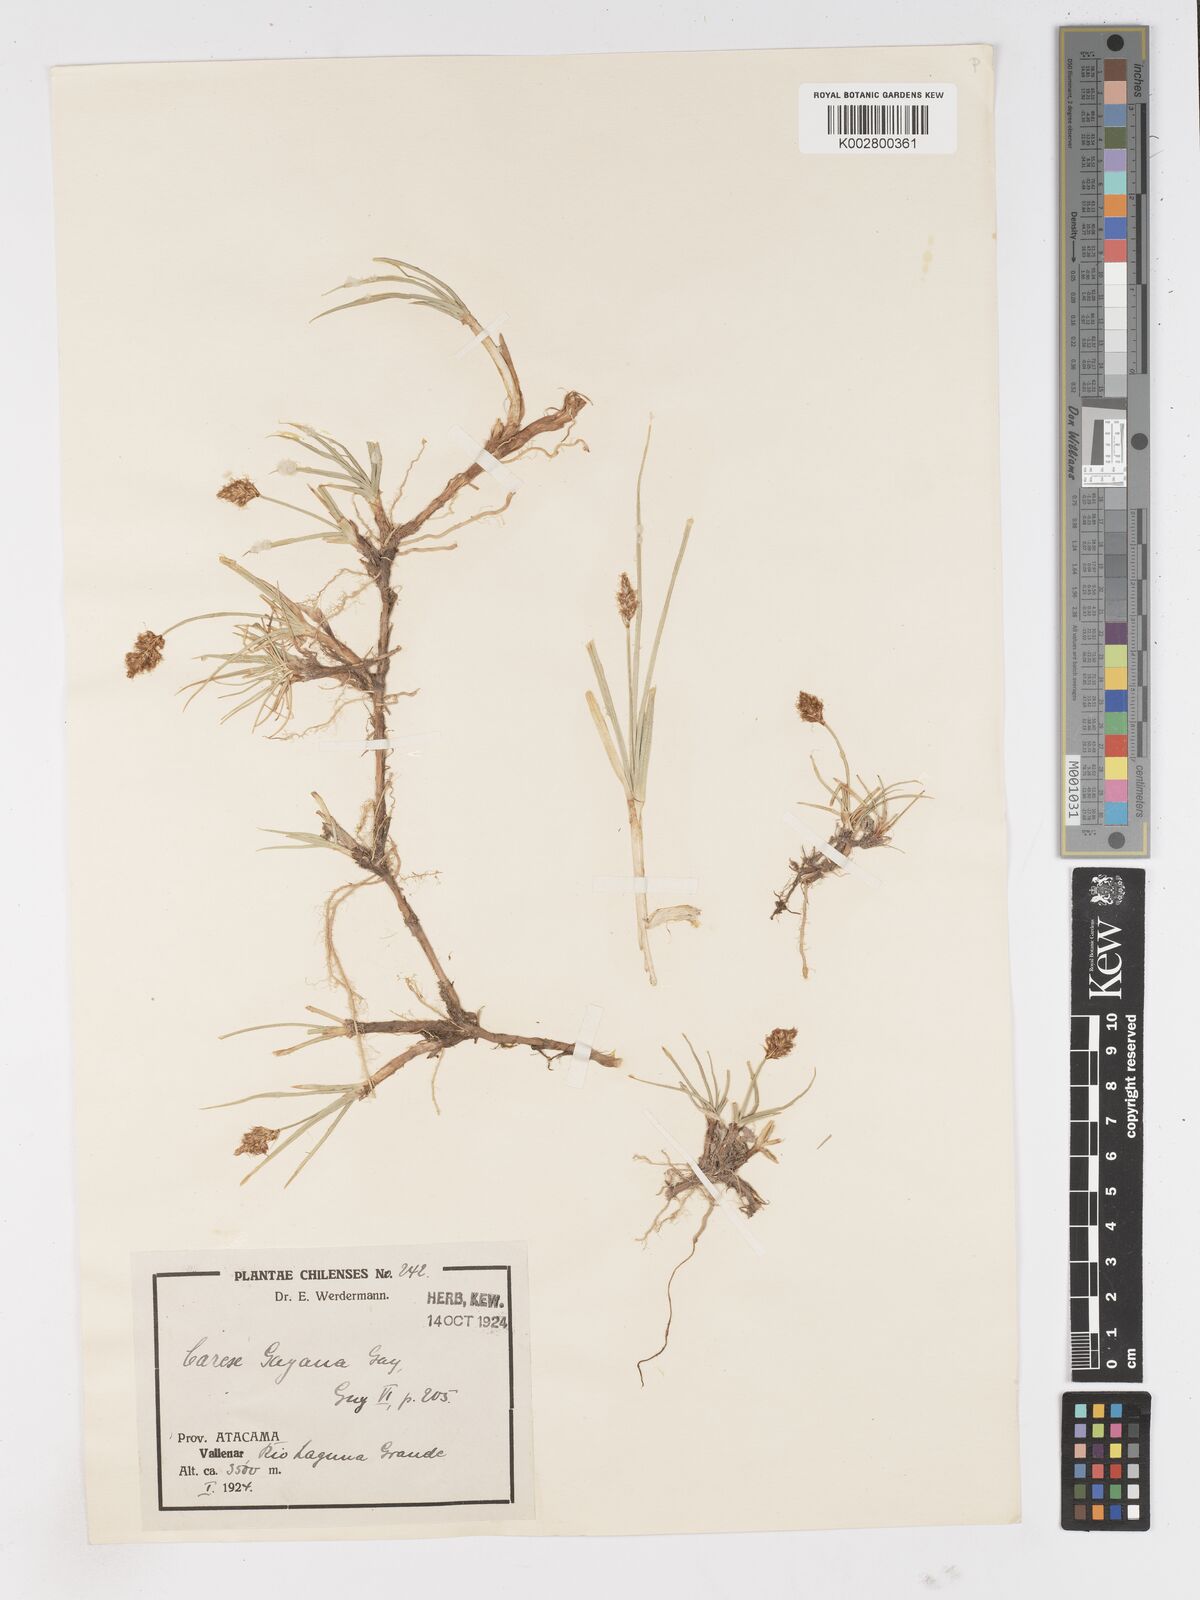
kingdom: Plantae
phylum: Tracheophyta
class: Liliopsida
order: Poales
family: Cyperaceae
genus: Carex
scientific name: Carex gayana
